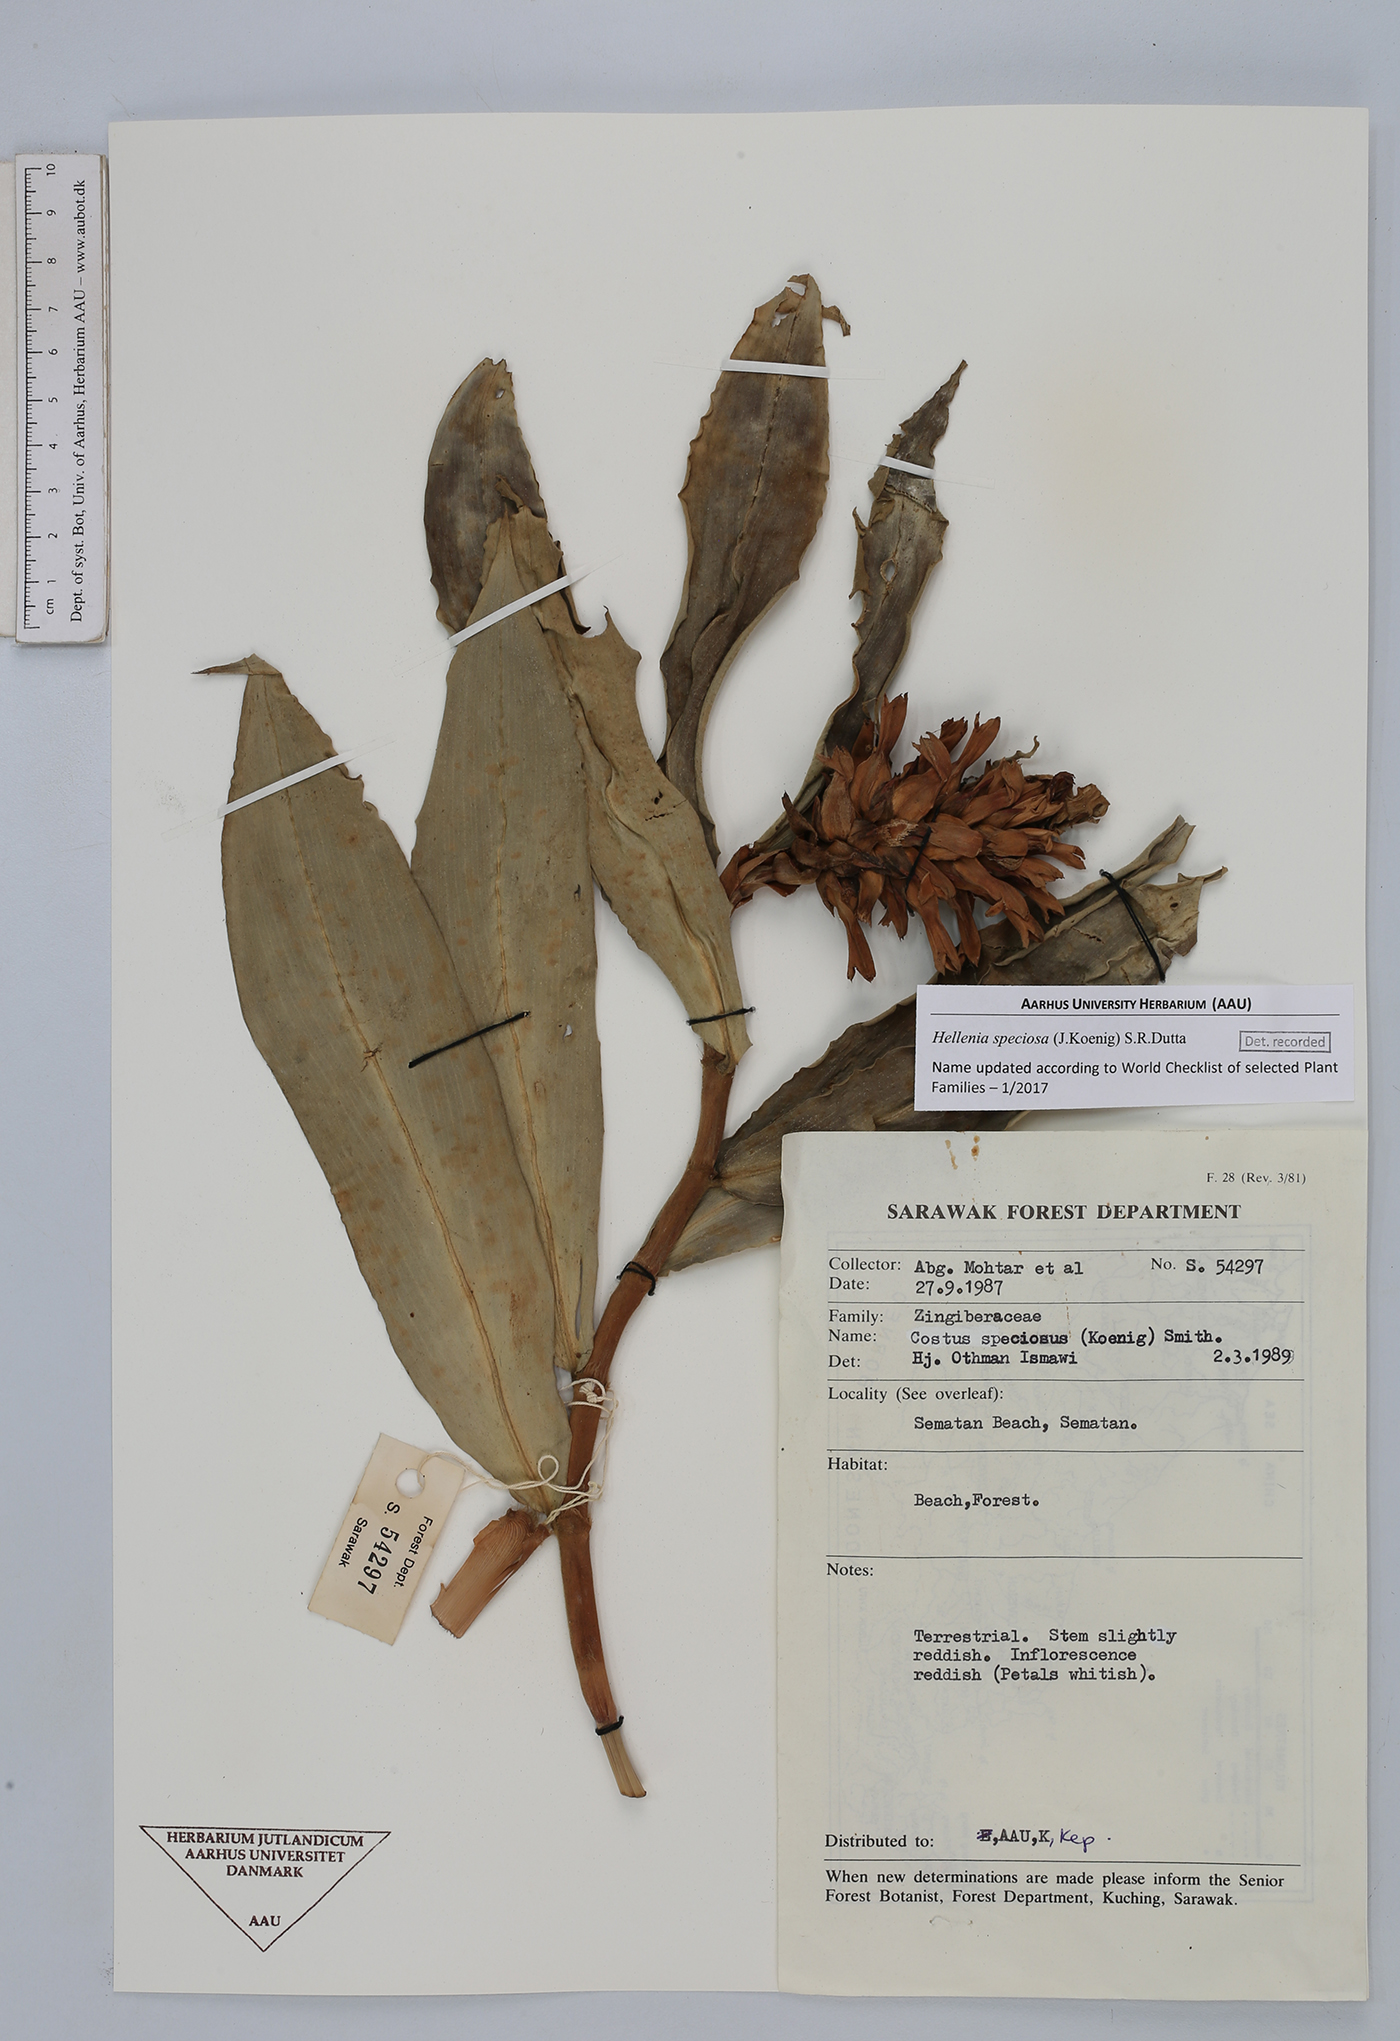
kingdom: Plantae
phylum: Tracheophyta
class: Liliopsida
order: Zingiberales
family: Costaceae
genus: Hellenia
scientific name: Hellenia speciosa
